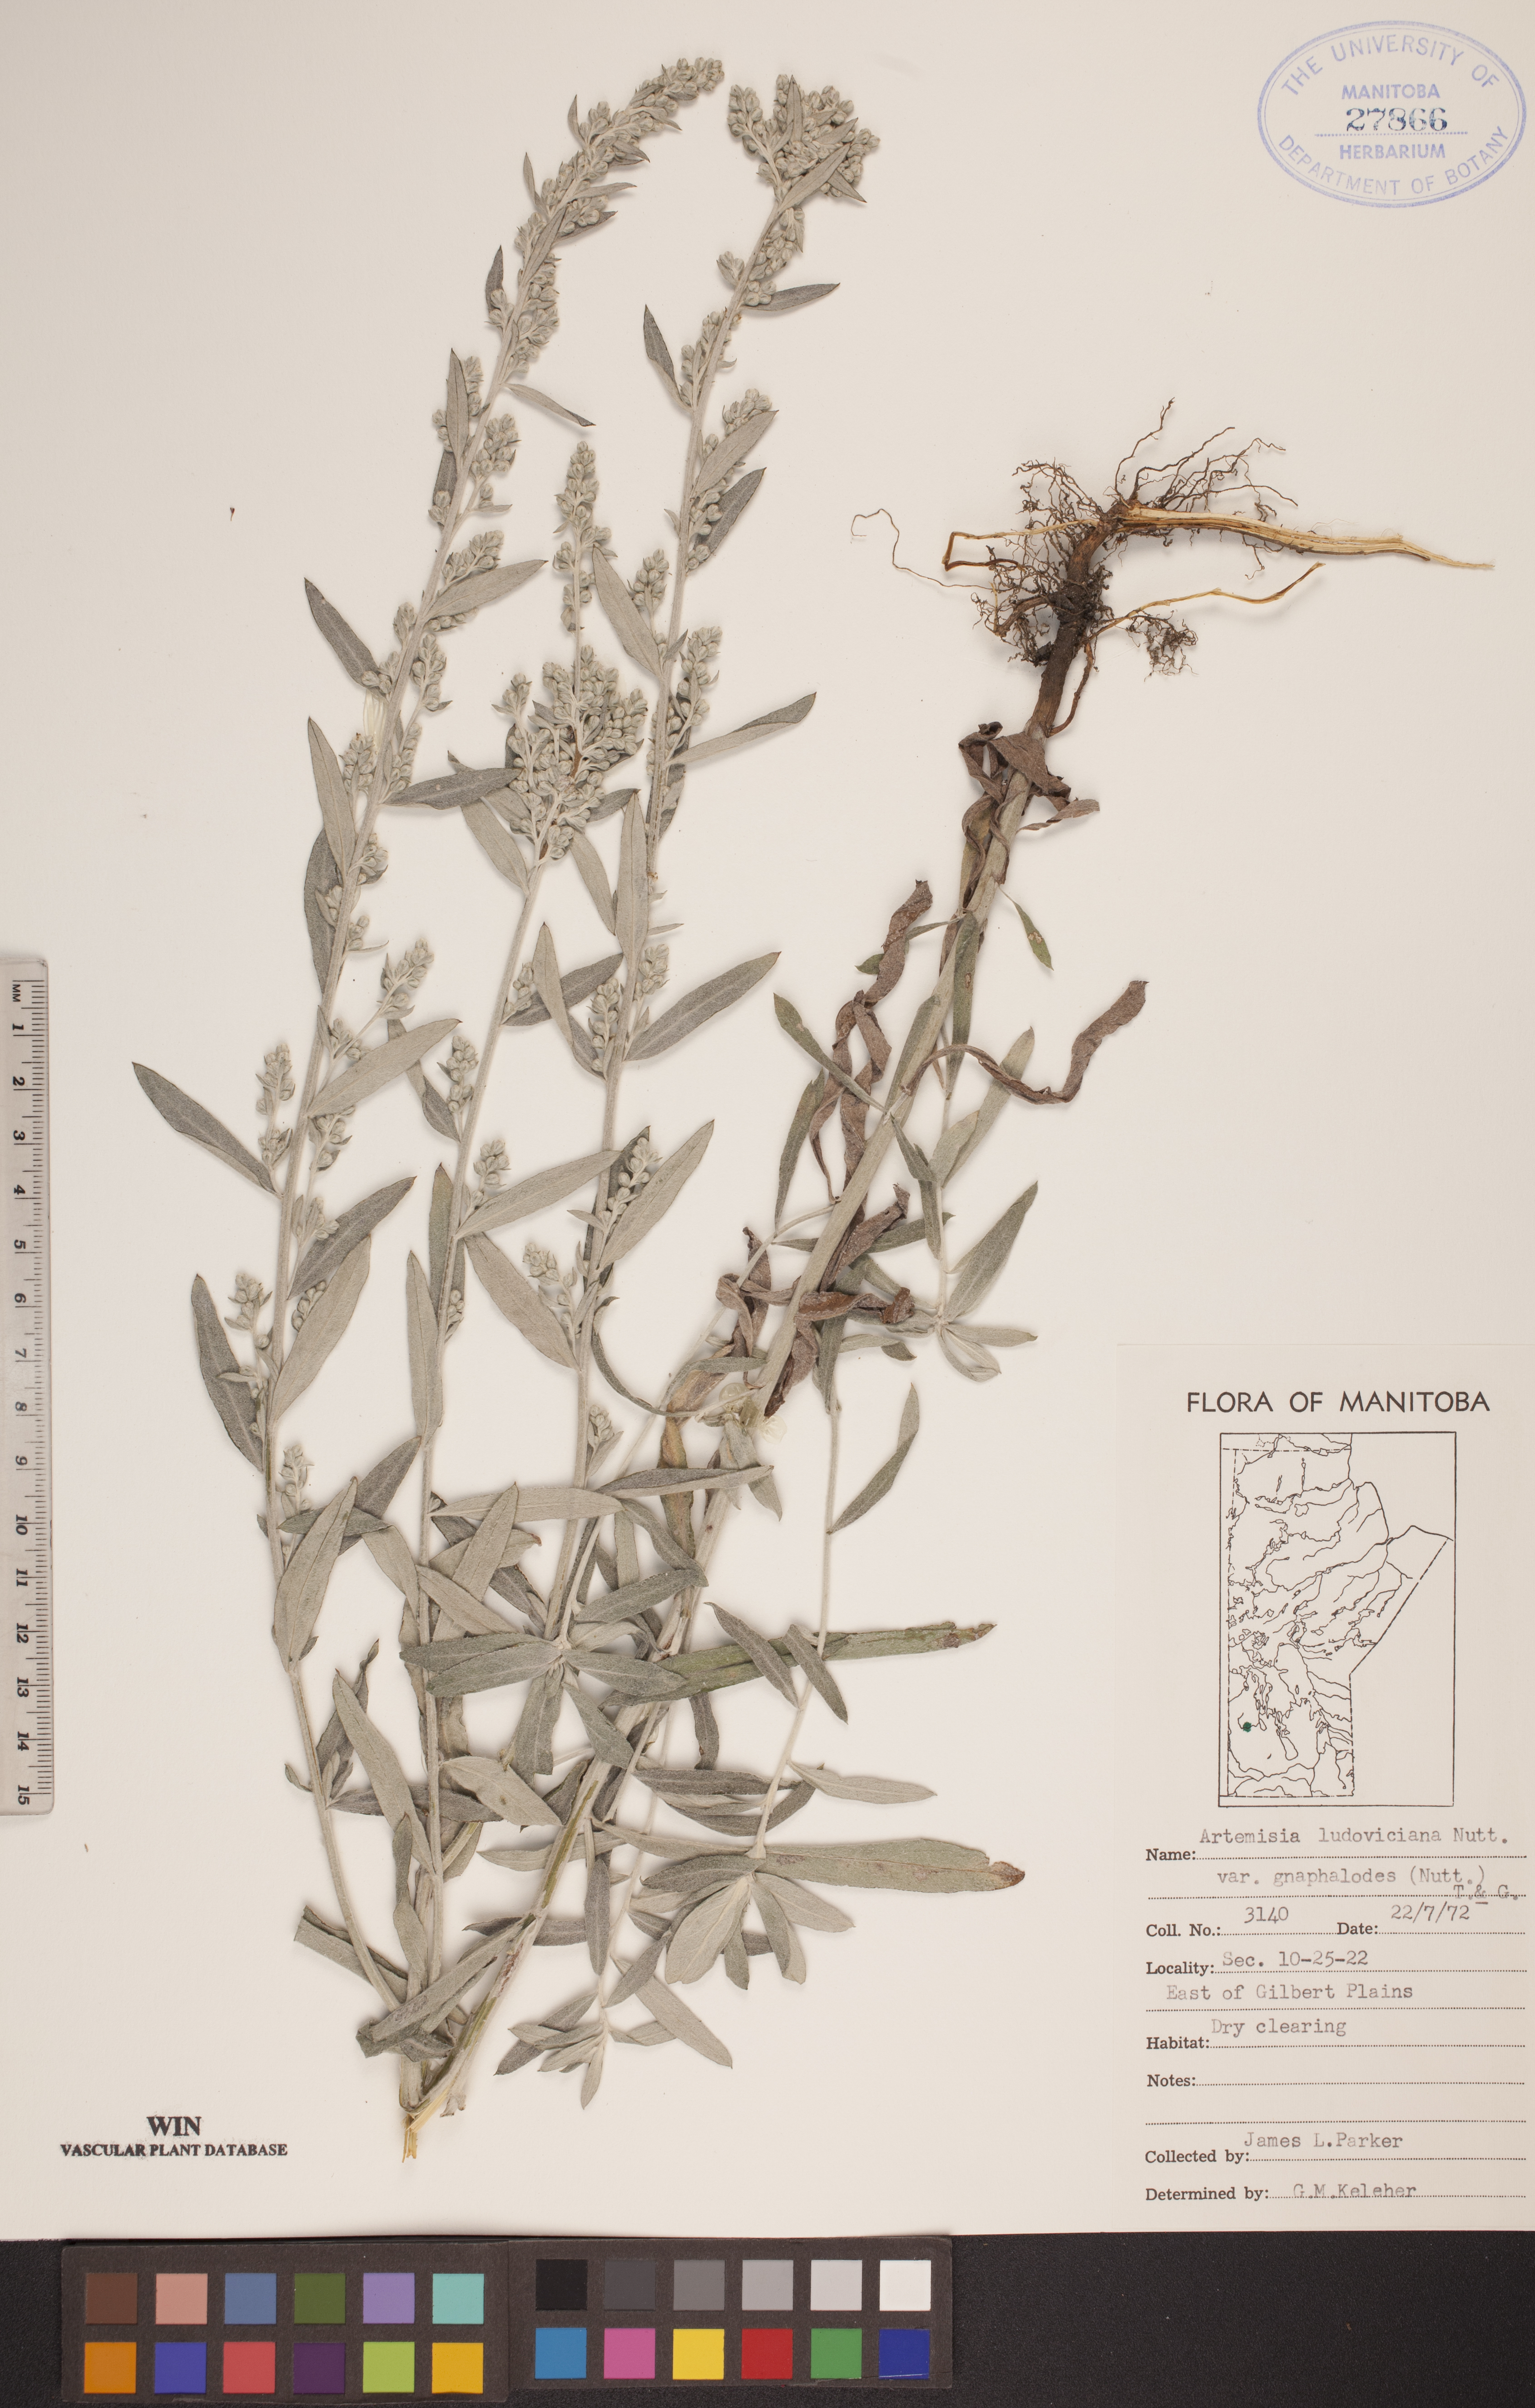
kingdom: Plantae
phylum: Tracheophyta
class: Magnoliopsida
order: Asterales
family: Asteraceae
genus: Artemisia
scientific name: Artemisia ludoviciana
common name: Western mugwort
